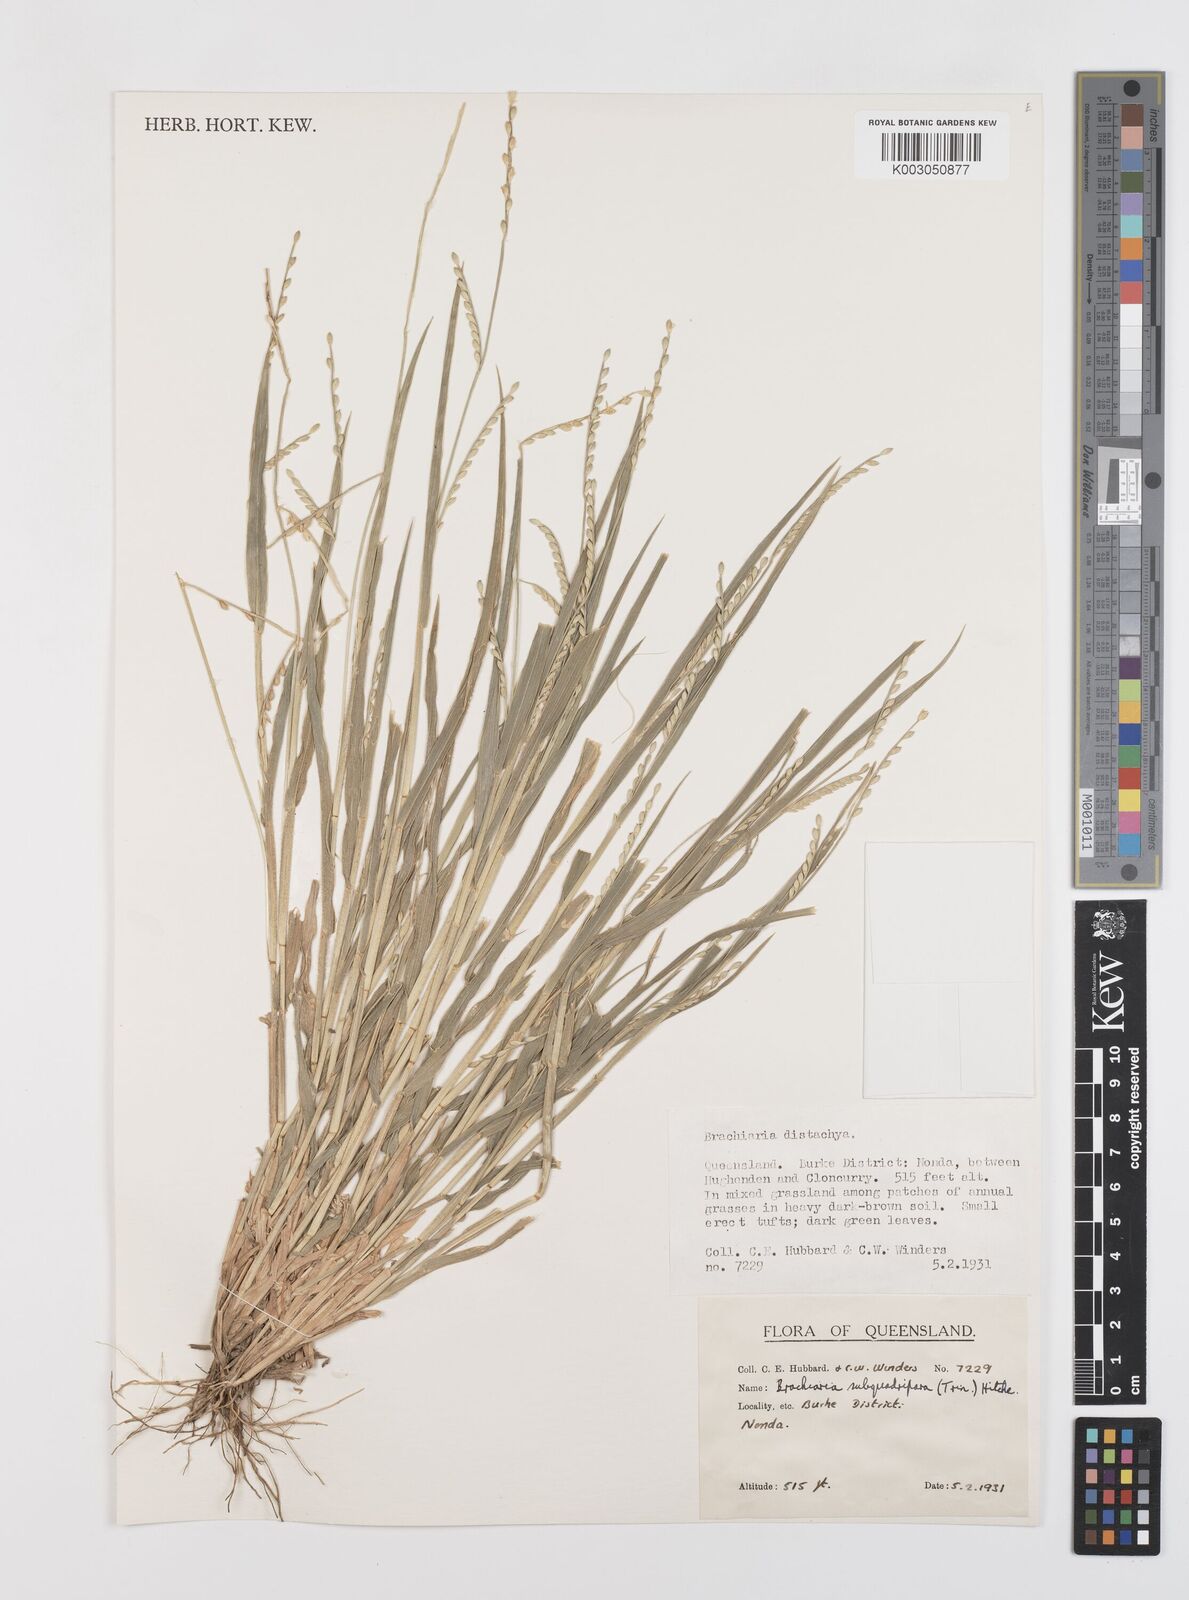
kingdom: Plantae
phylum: Tracheophyta
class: Liliopsida
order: Poales
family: Poaceae
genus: Urochloa
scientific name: Urochloa subquadripara
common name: Armgrass millet
